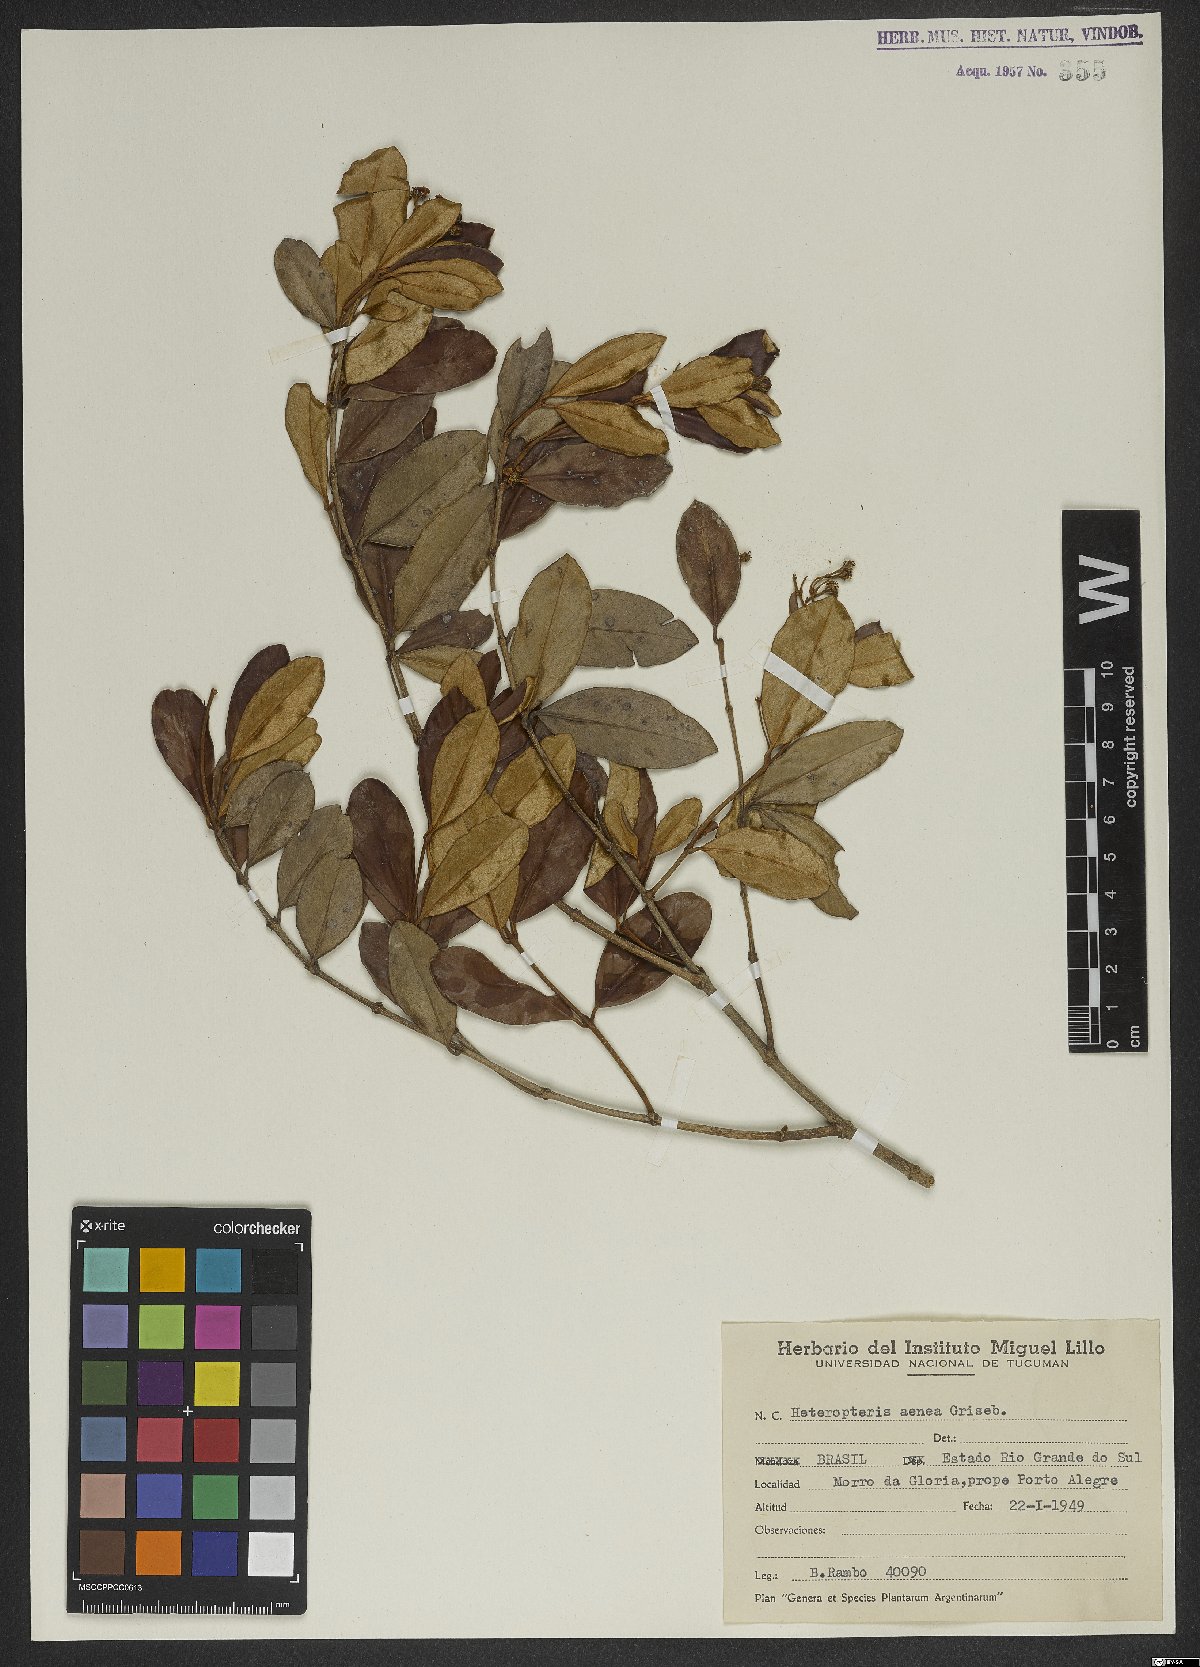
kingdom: Plantae
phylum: Tracheophyta
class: Magnoliopsida
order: Malpighiales
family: Malpighiaceae
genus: Heteropterys
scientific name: Heteropterys aenea
